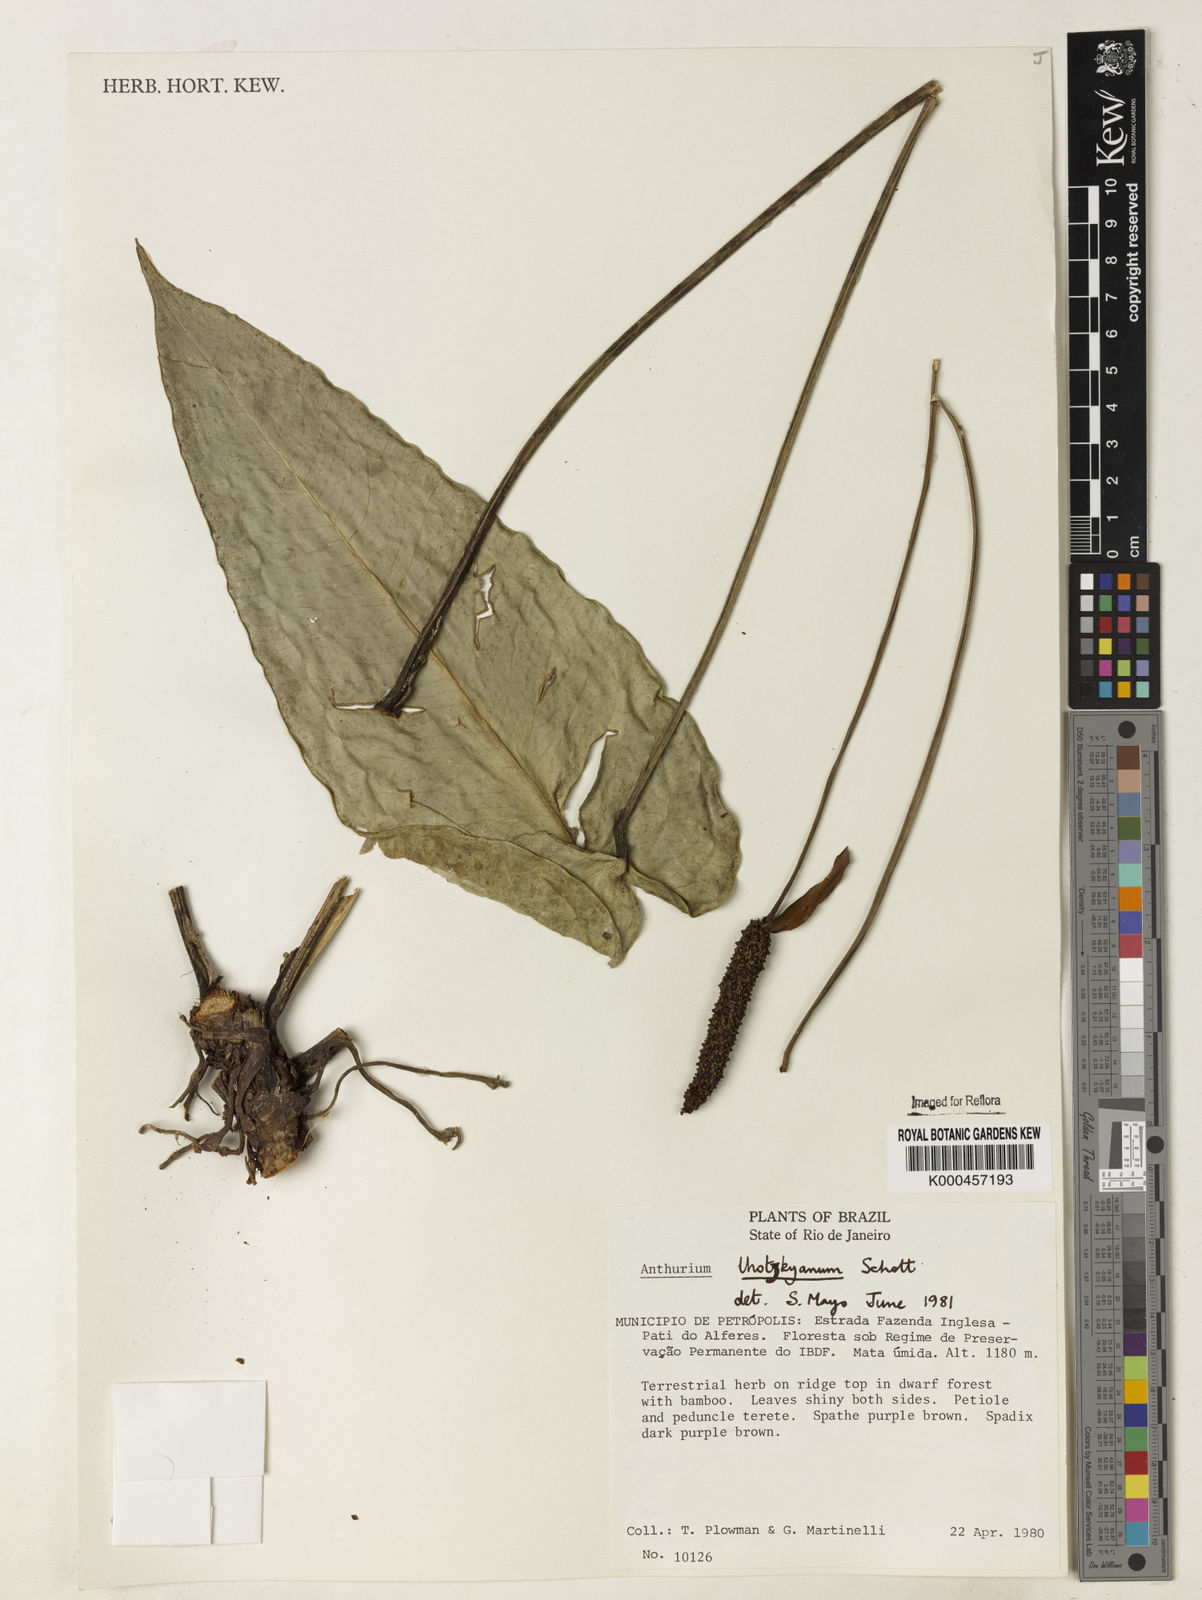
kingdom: Plantae
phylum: Tracheophyta
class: Liliopsida
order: Alismatales
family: Araceae
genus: Anthurium
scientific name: Anthurium augustinum
